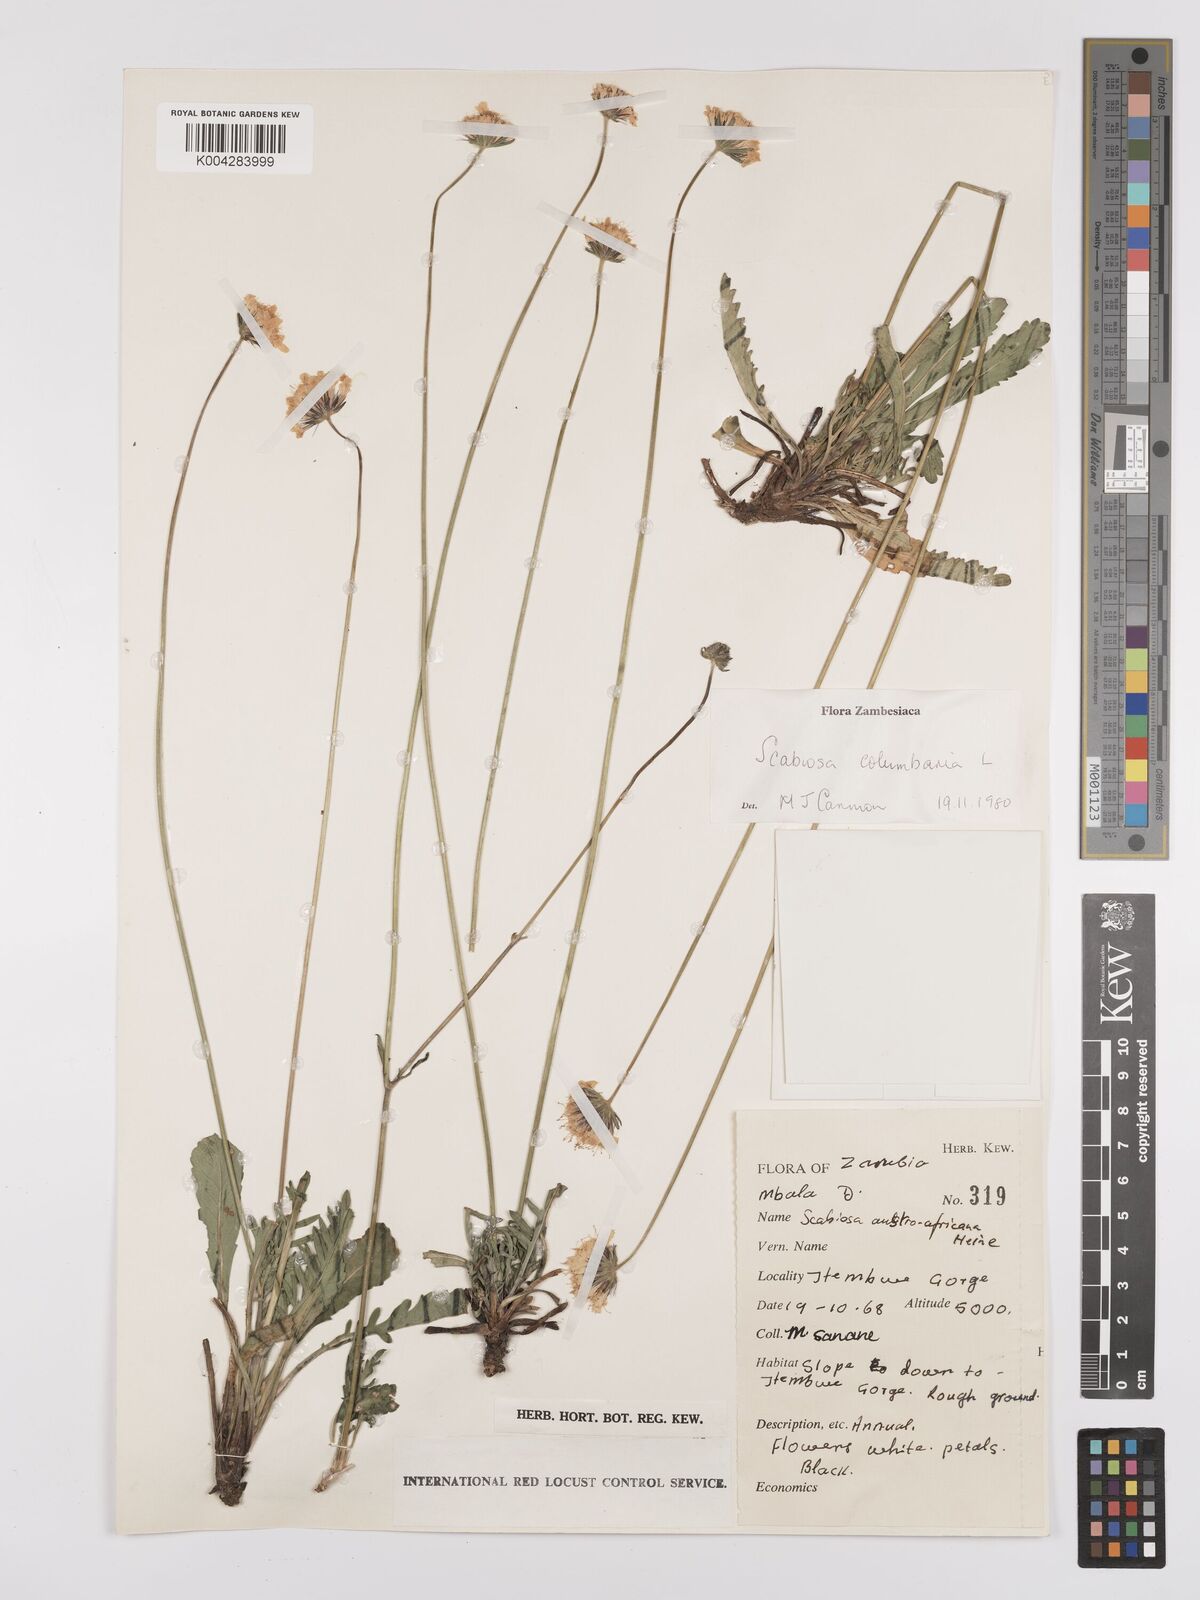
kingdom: Plantae
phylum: Tracheophyta
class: Magnoliopsida
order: Dipsacales
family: Caprifoliaceae
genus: Scabiosa
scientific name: Scabiosa austroafricana
